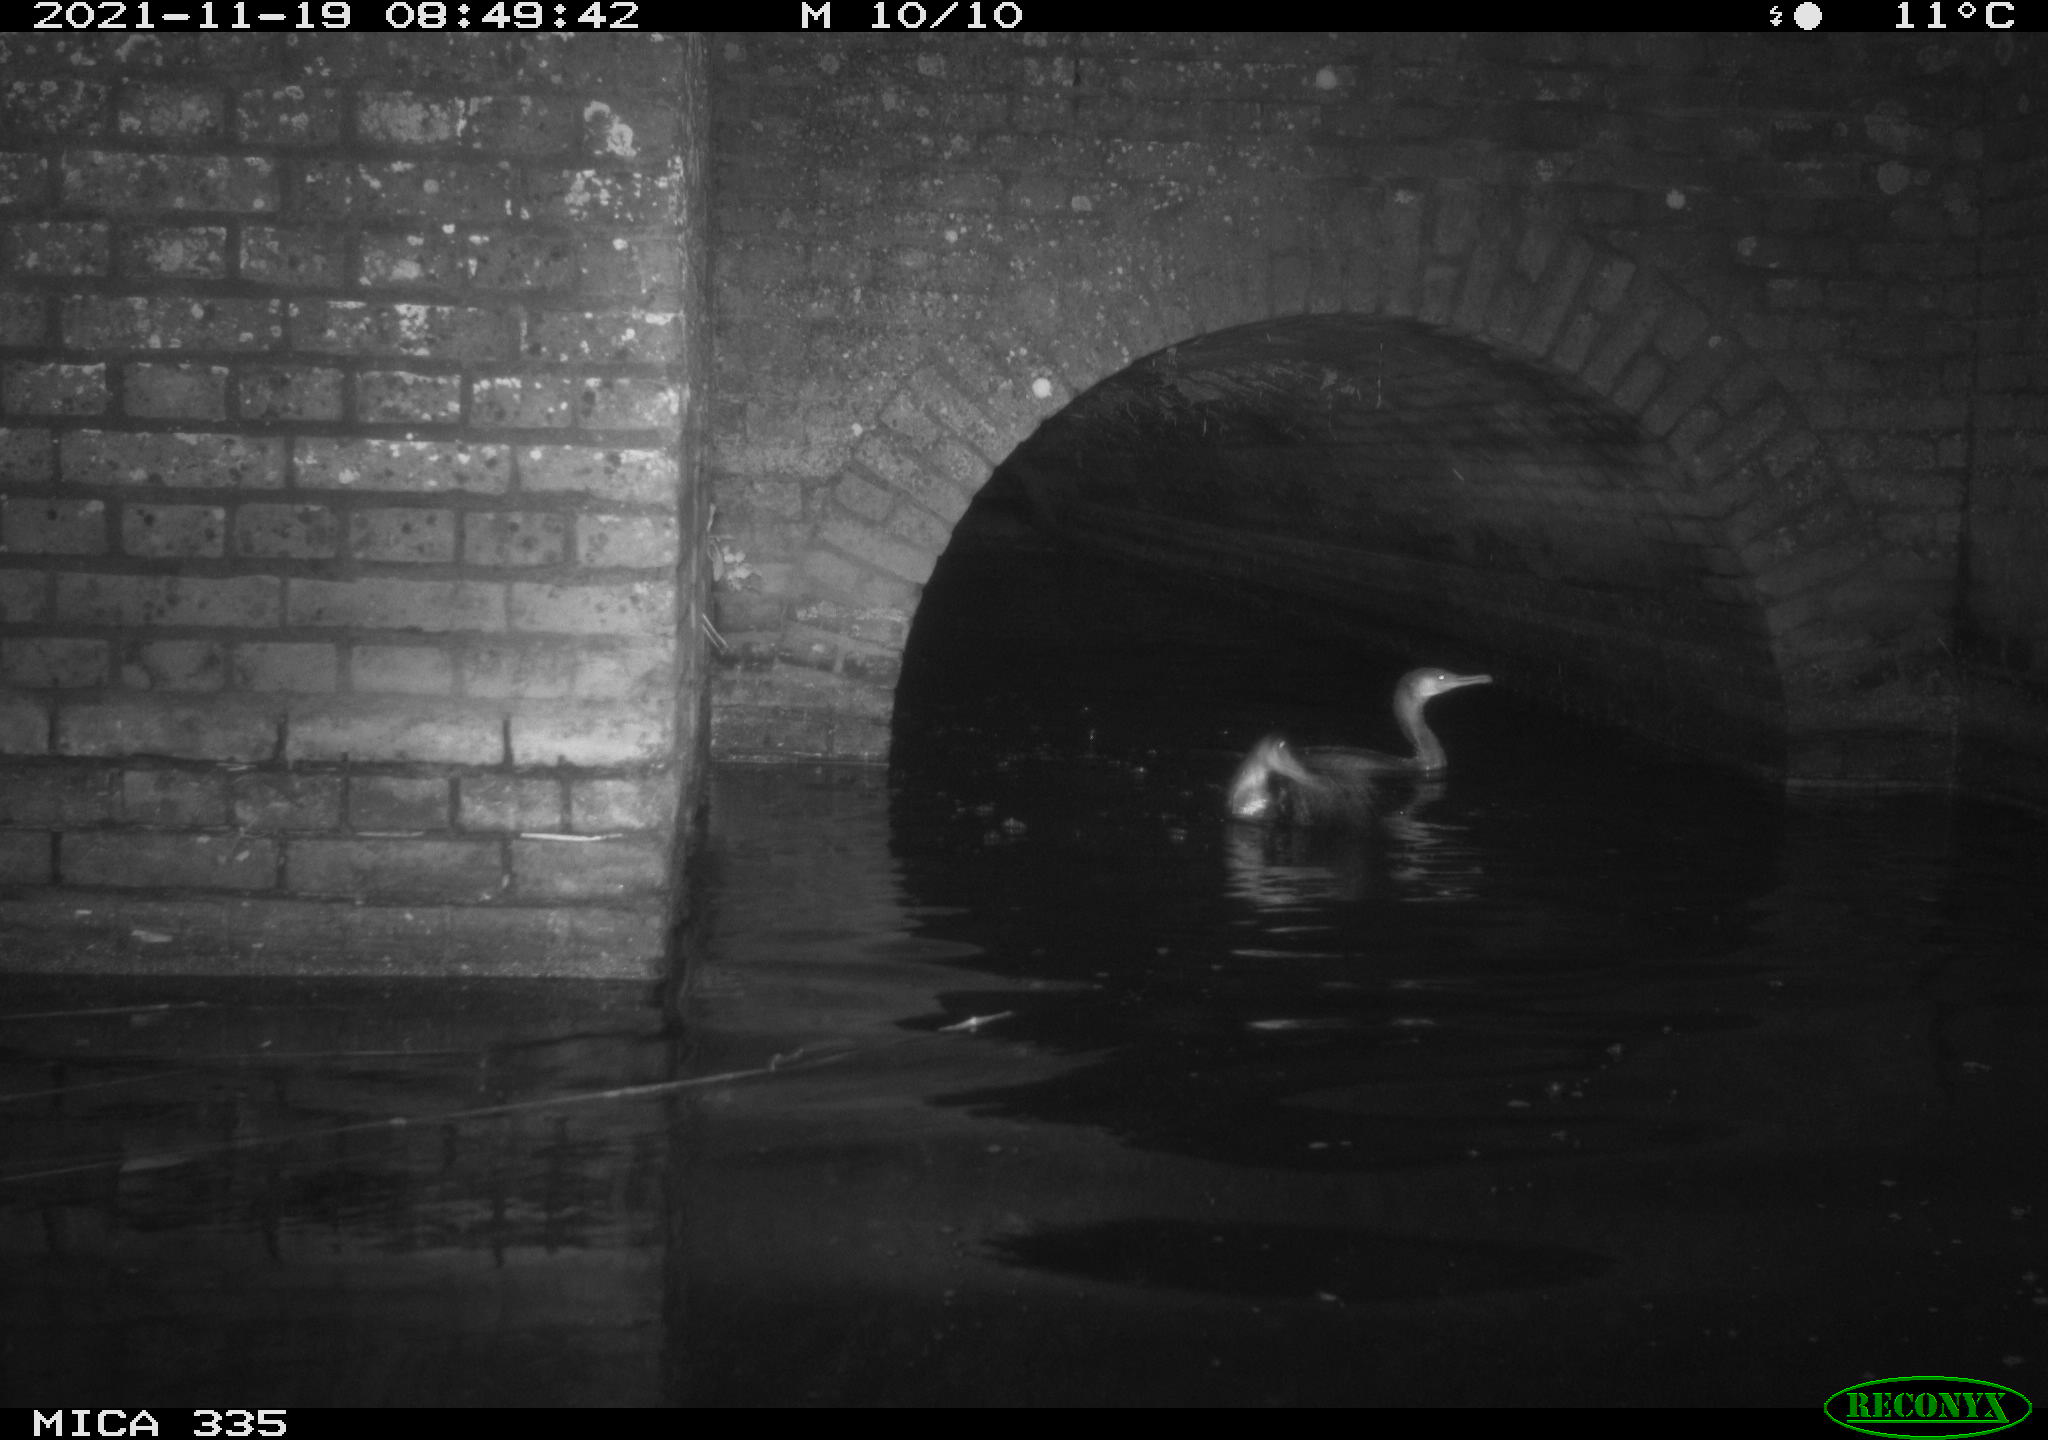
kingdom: Animalia
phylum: Chordata
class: Aves
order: Suliformes
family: Phalacrocoracidae
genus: Phalacrocorax
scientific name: Phalacrocorax carbo
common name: Great cormorant
